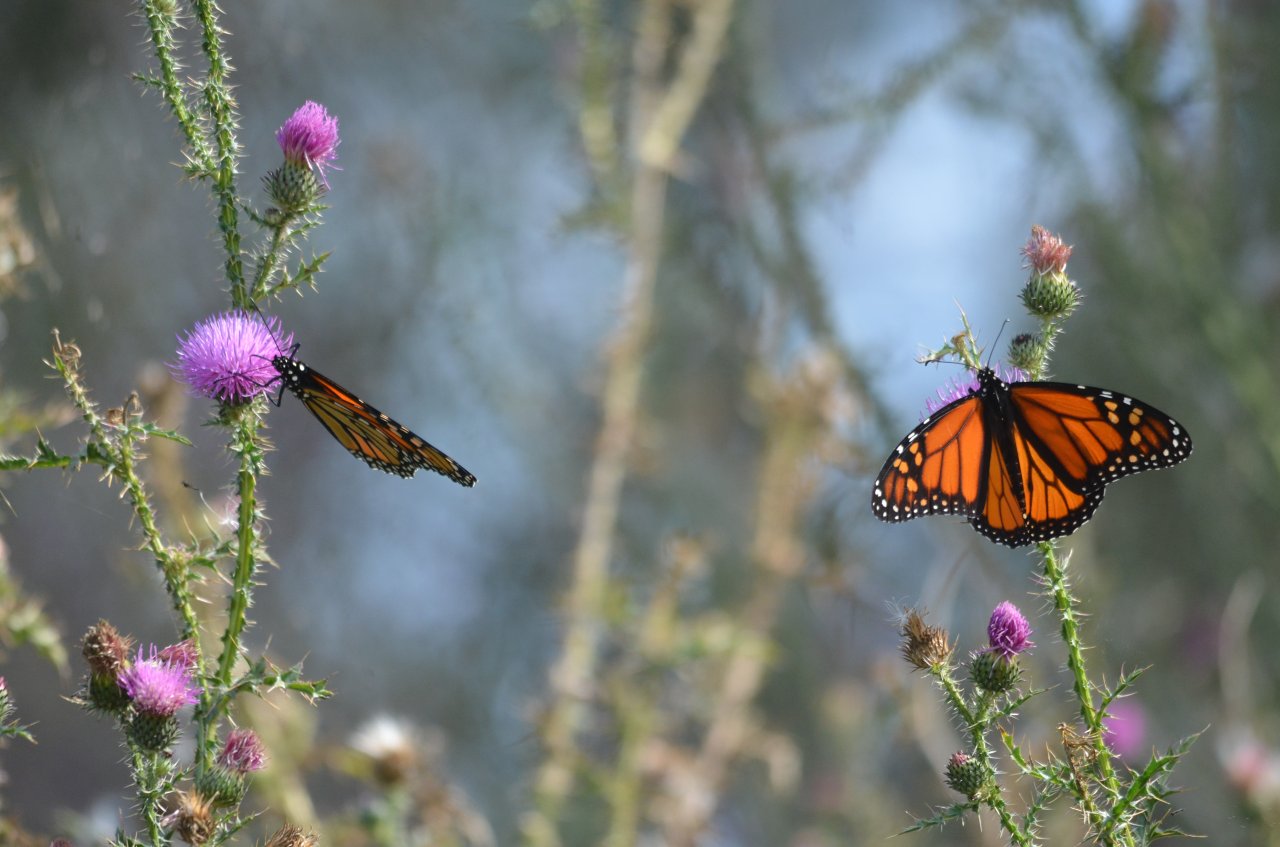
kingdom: Animalia
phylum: Arthropoda
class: Insecta
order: Lepidoptera
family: Nymphalidae
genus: Danaus
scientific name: Danaus plexippus
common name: Monarch
